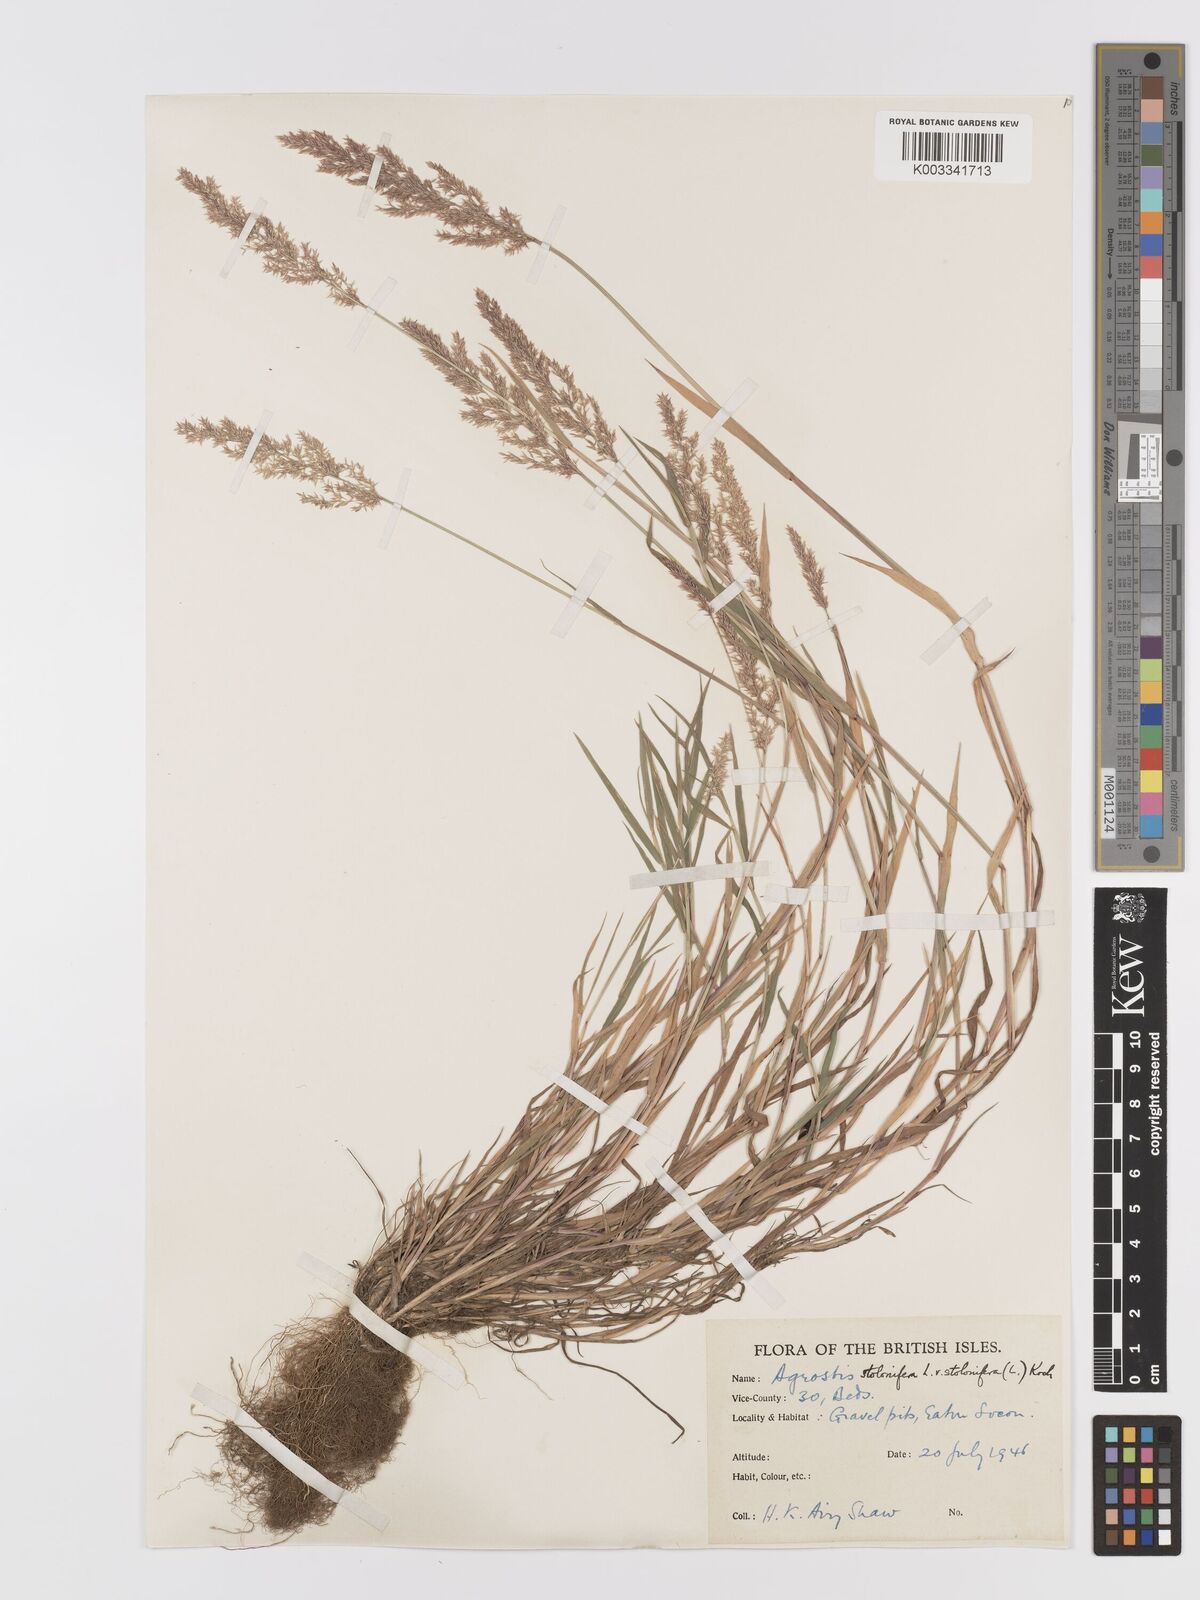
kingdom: Plantae
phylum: Tracheophyta
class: Liliopsida
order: Poales
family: Poaceae
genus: Agrostis
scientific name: Agrostis stolonifera
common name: Creeping bentgrass
